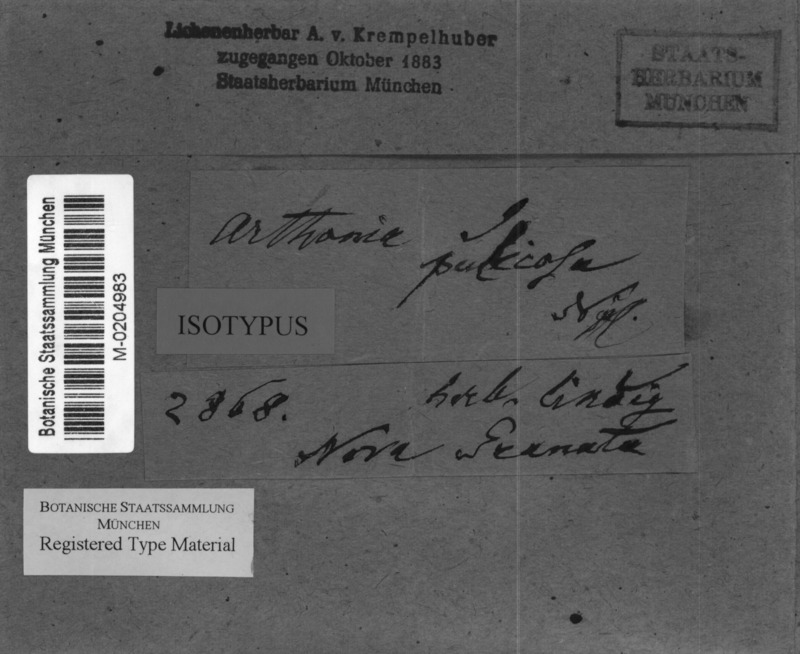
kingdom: Fungi
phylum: Ascomycota
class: Arthoniomycetes
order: Arthoniales
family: Arthoniaceae
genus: Arthonia
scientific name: Arthonia pulicosa
